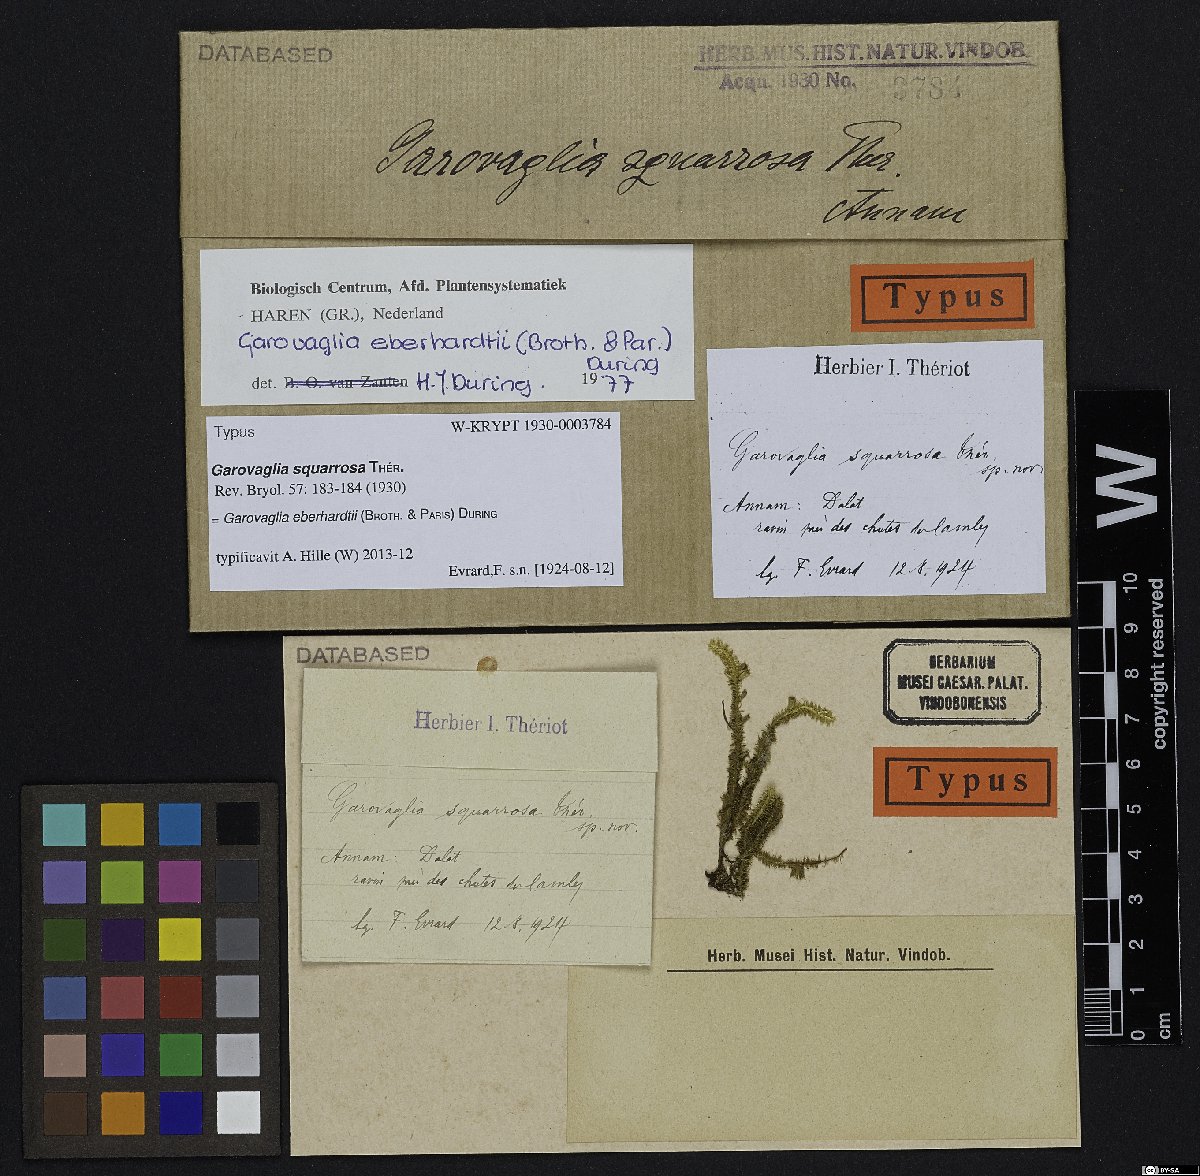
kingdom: Plantae
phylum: Bryophyta
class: Bryopsida
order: Ptychomniales
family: Ptychomniaceae
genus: Garovaglia
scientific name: Garovaglia eberhardtii
